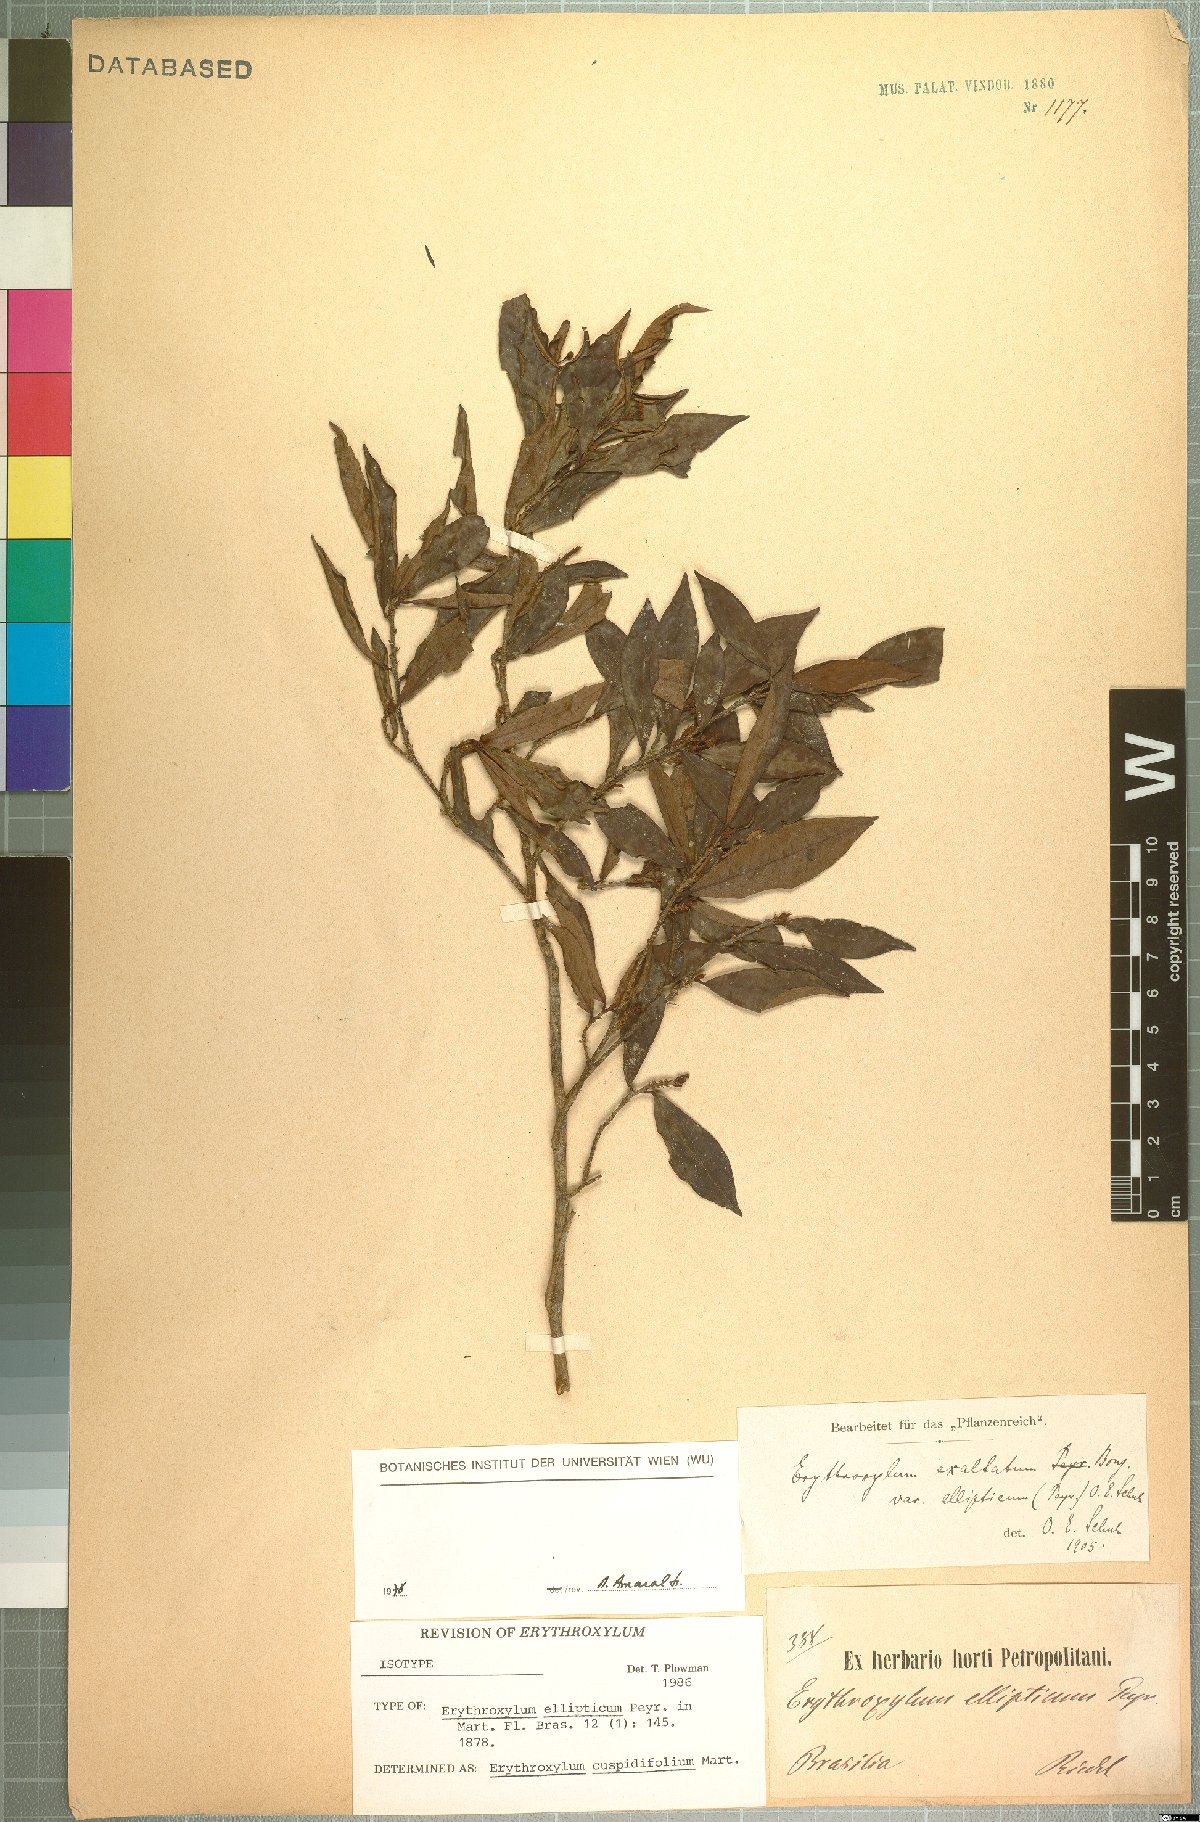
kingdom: Plantae
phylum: Tracheophyta
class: Magnoliopsida
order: Malpighiales
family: Erythroxylaceae
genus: Erythroxylum
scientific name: Erythroxylum cuspidifolium
